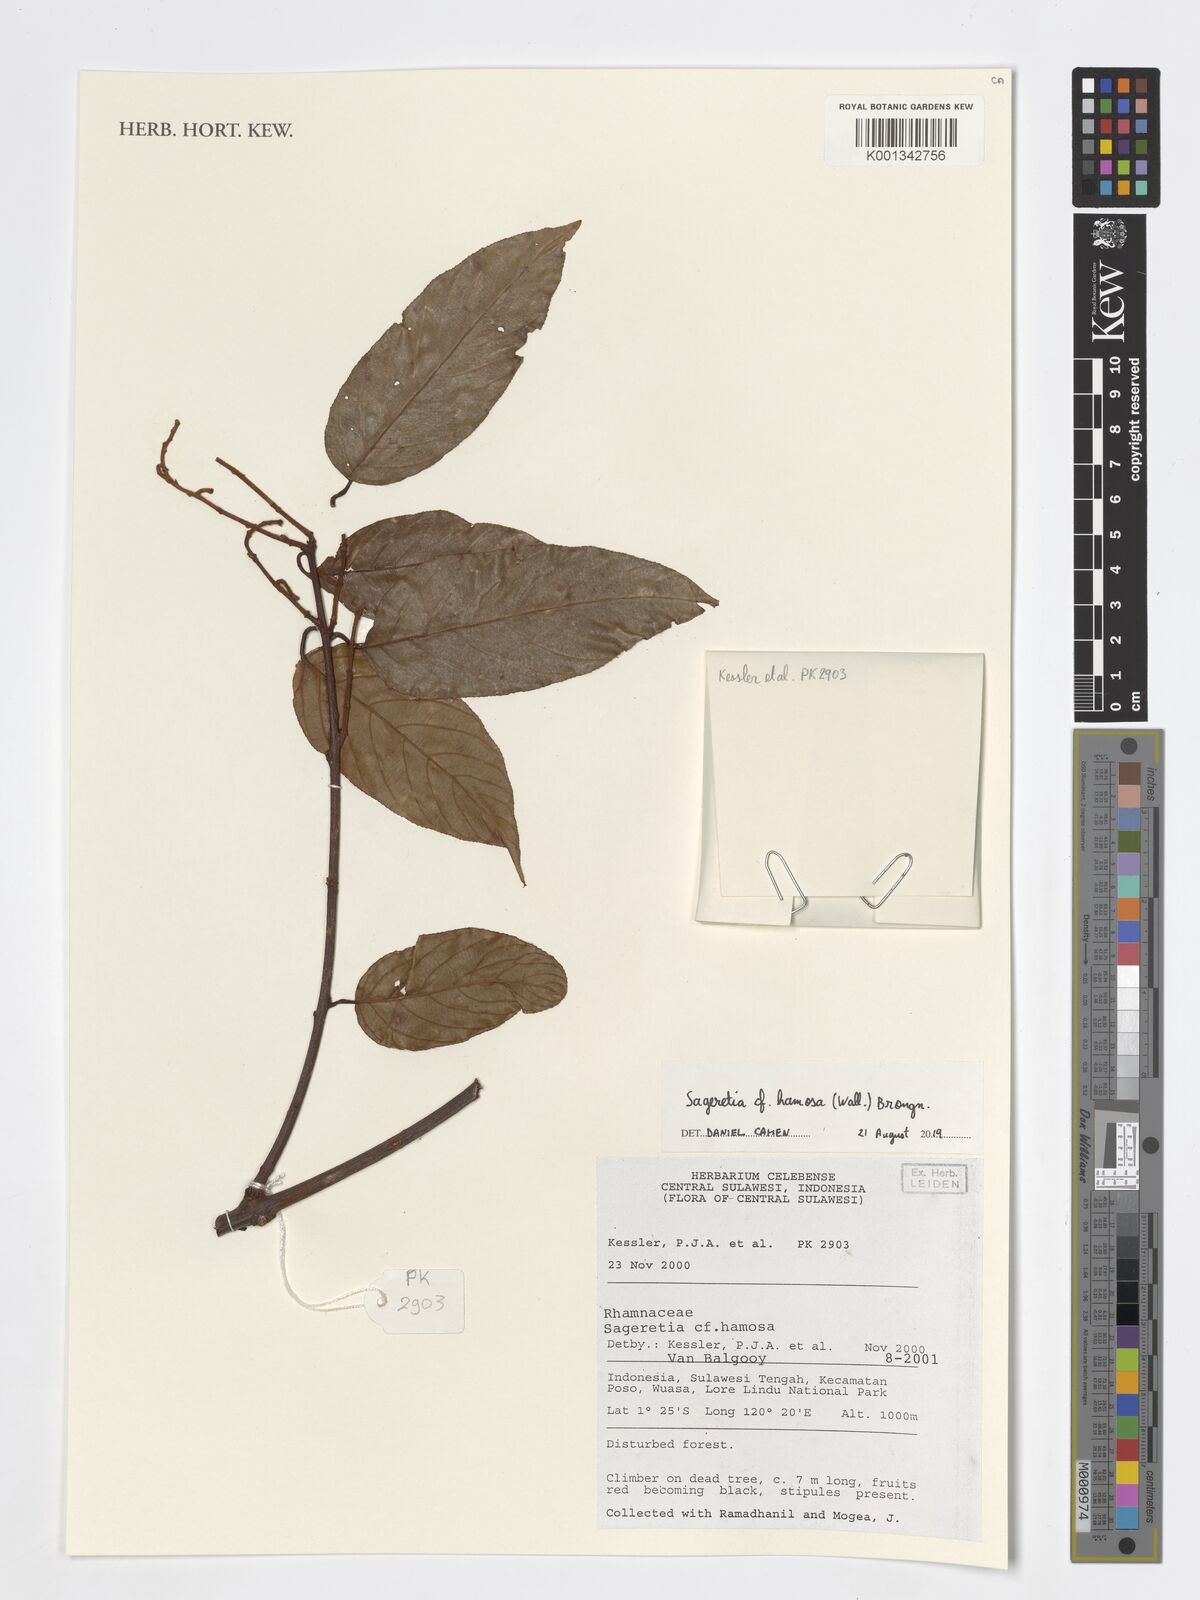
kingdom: Plantae
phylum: Tracheophyta
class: Magnoliopsida
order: Rosales
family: Rhamnaceae
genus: Sageretia
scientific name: Sageretia hamosa
